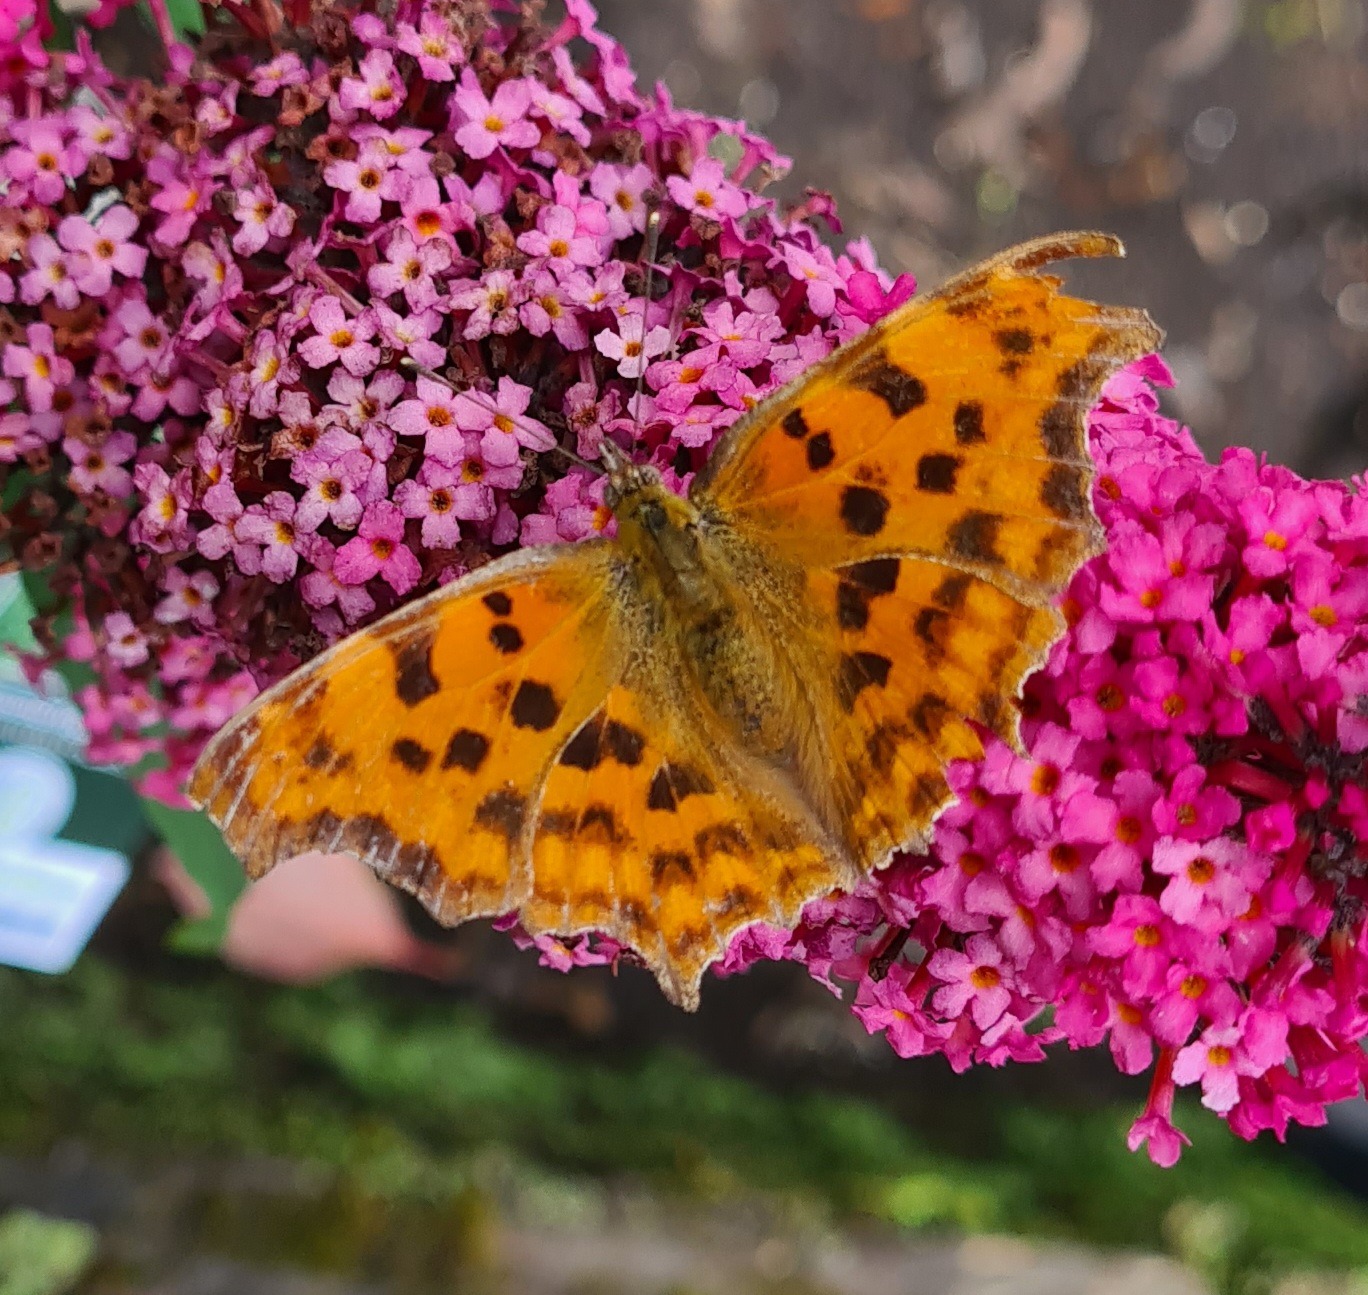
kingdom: Animalia
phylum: Arthropoda
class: Insecta
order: Lepidoptera
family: Nymphalidae
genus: Polygonia
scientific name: Polygonia c-album
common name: Det hvide C
